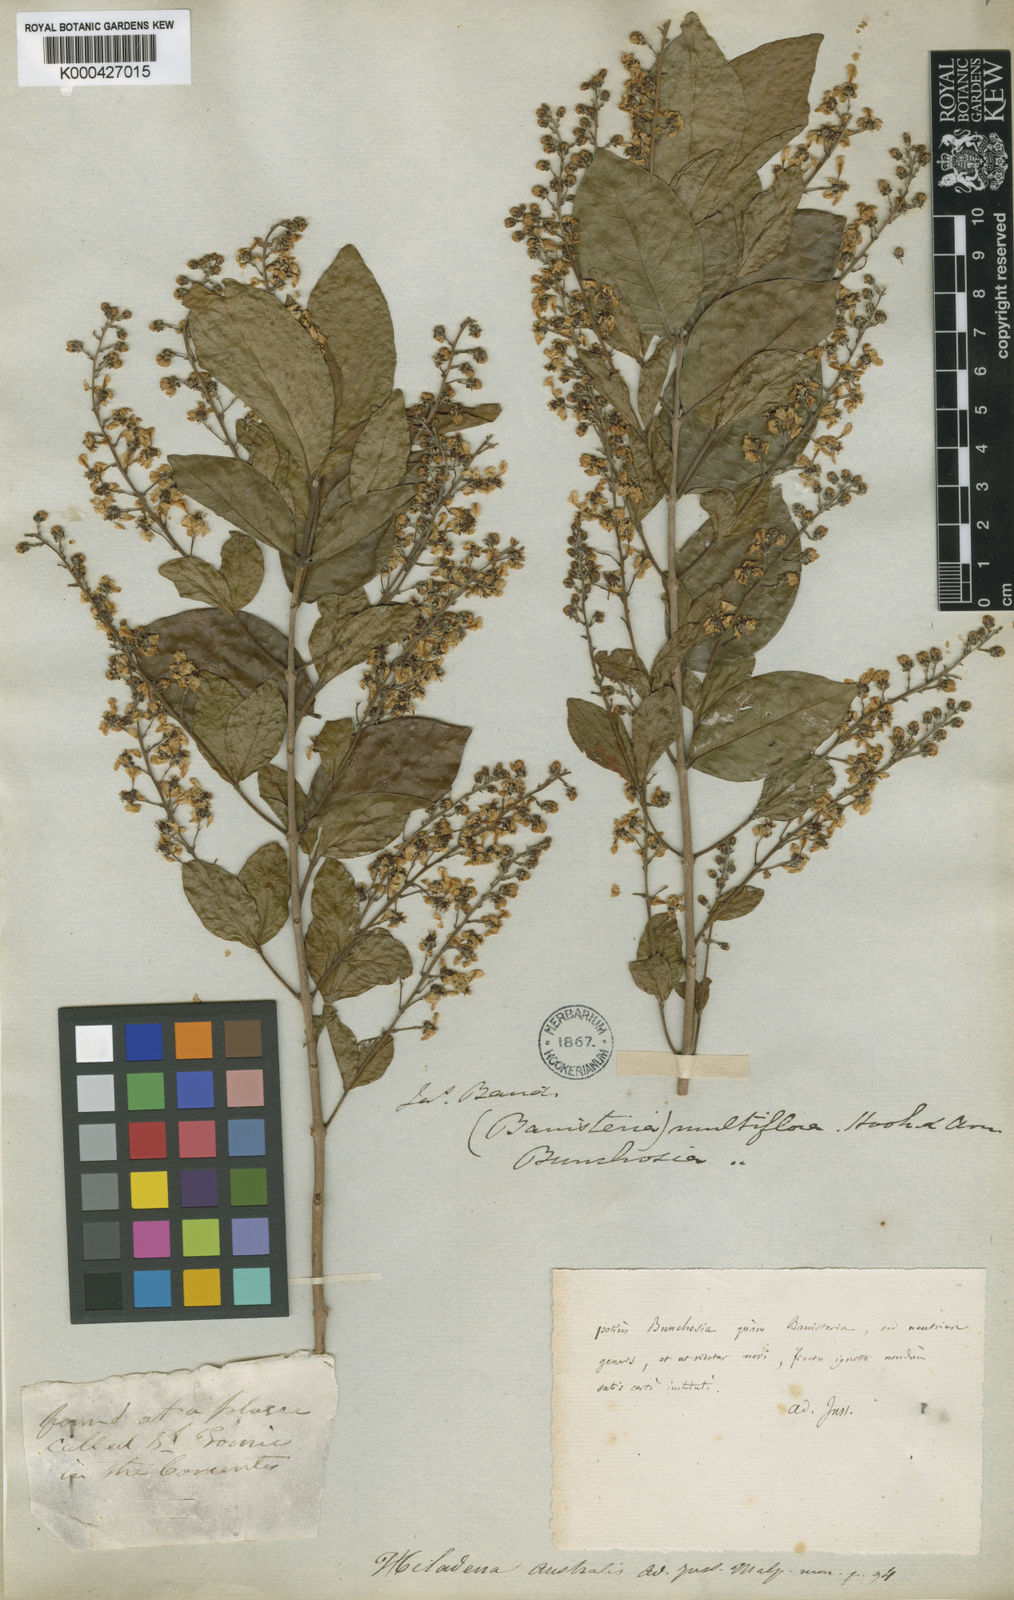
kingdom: Plantae
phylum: Tracheophyta
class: Magnoliopsida
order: Malpighiales
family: Malpighiaceae
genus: Heladena
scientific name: Heladena multiflora
